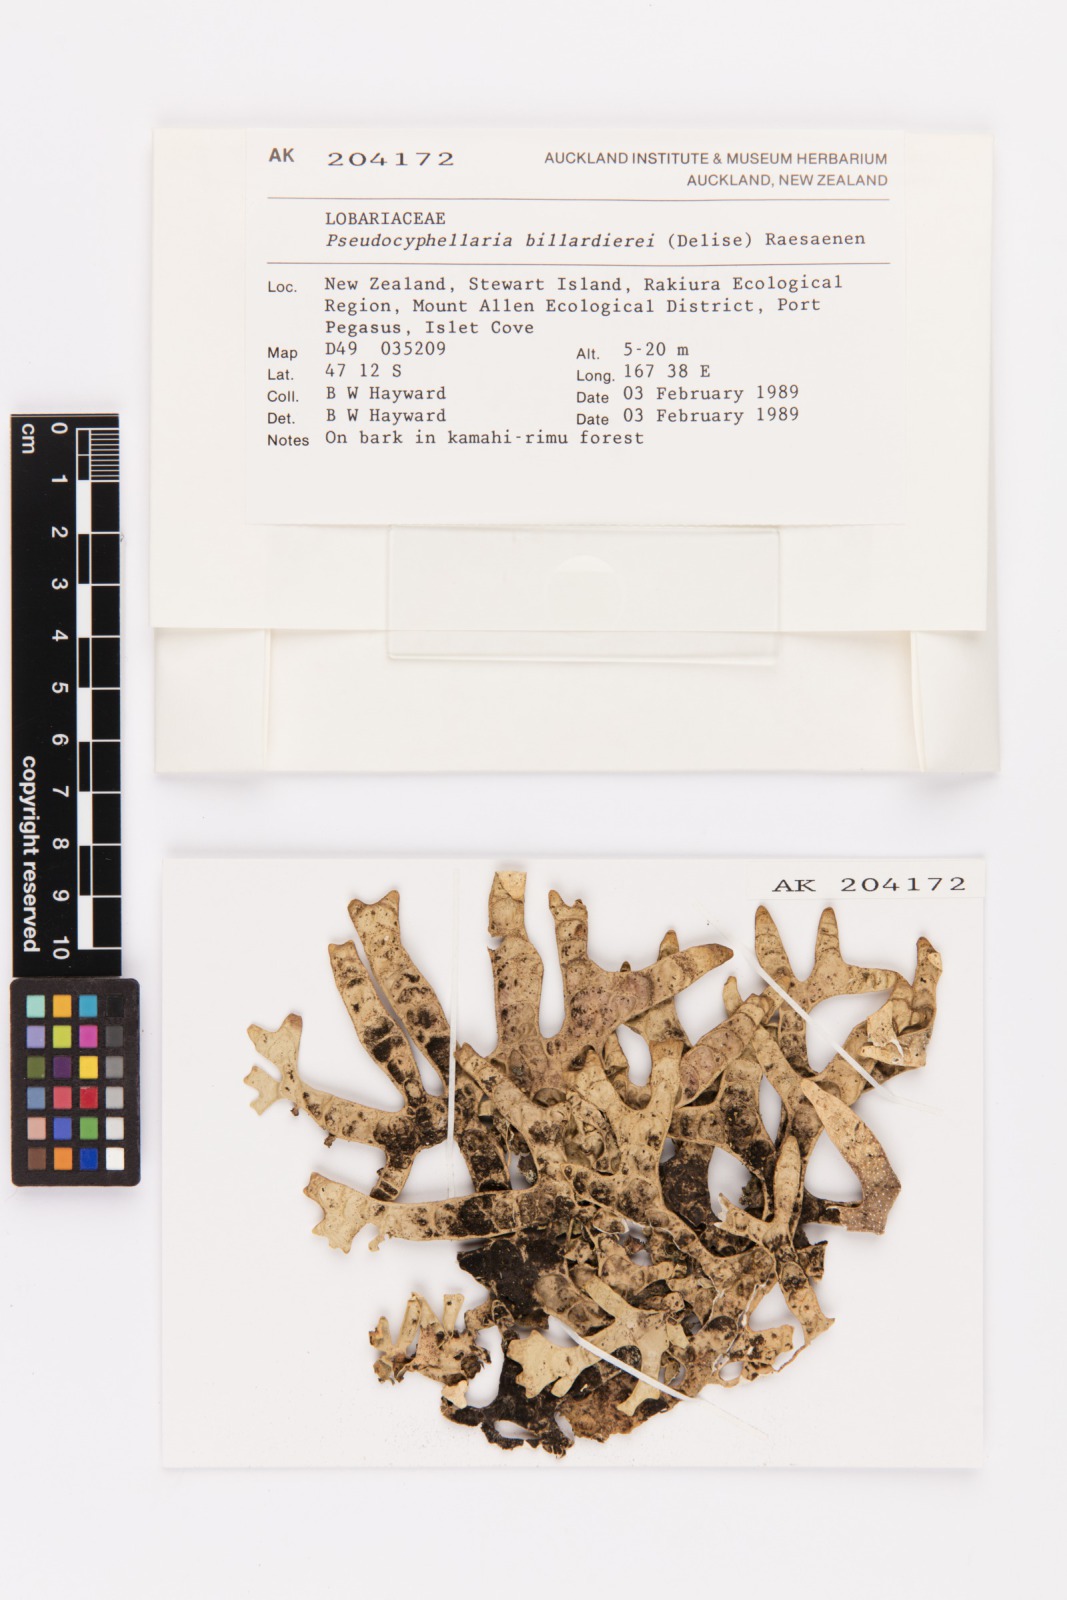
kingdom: Fungi
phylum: Ascomycota
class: Lecanoromycetes
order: Peltigerales
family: Lobariaceae
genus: Pseudocyphellaria
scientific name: Pseudocyphellaria billardierei
